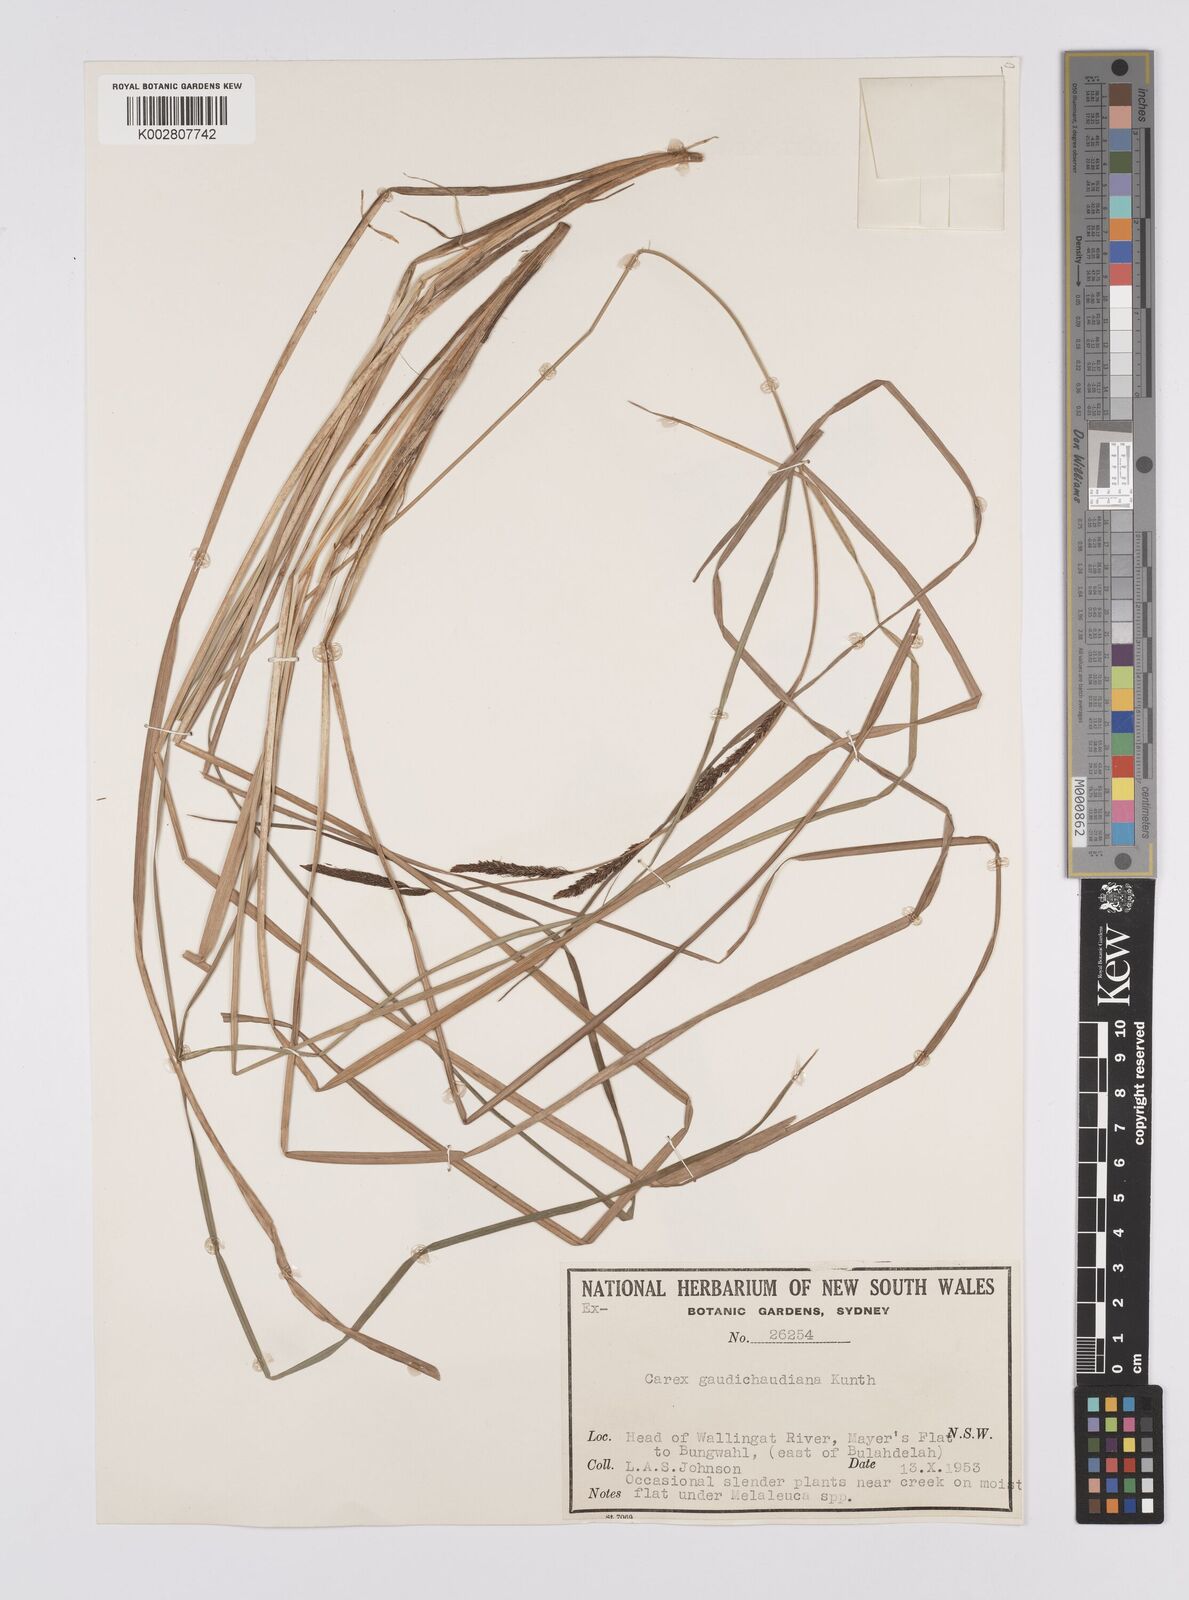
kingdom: Plantae
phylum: Tracheophyta
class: Liliopsida
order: Poales
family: Cyperaceae
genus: Carex
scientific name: Carex gaudichaudiana
